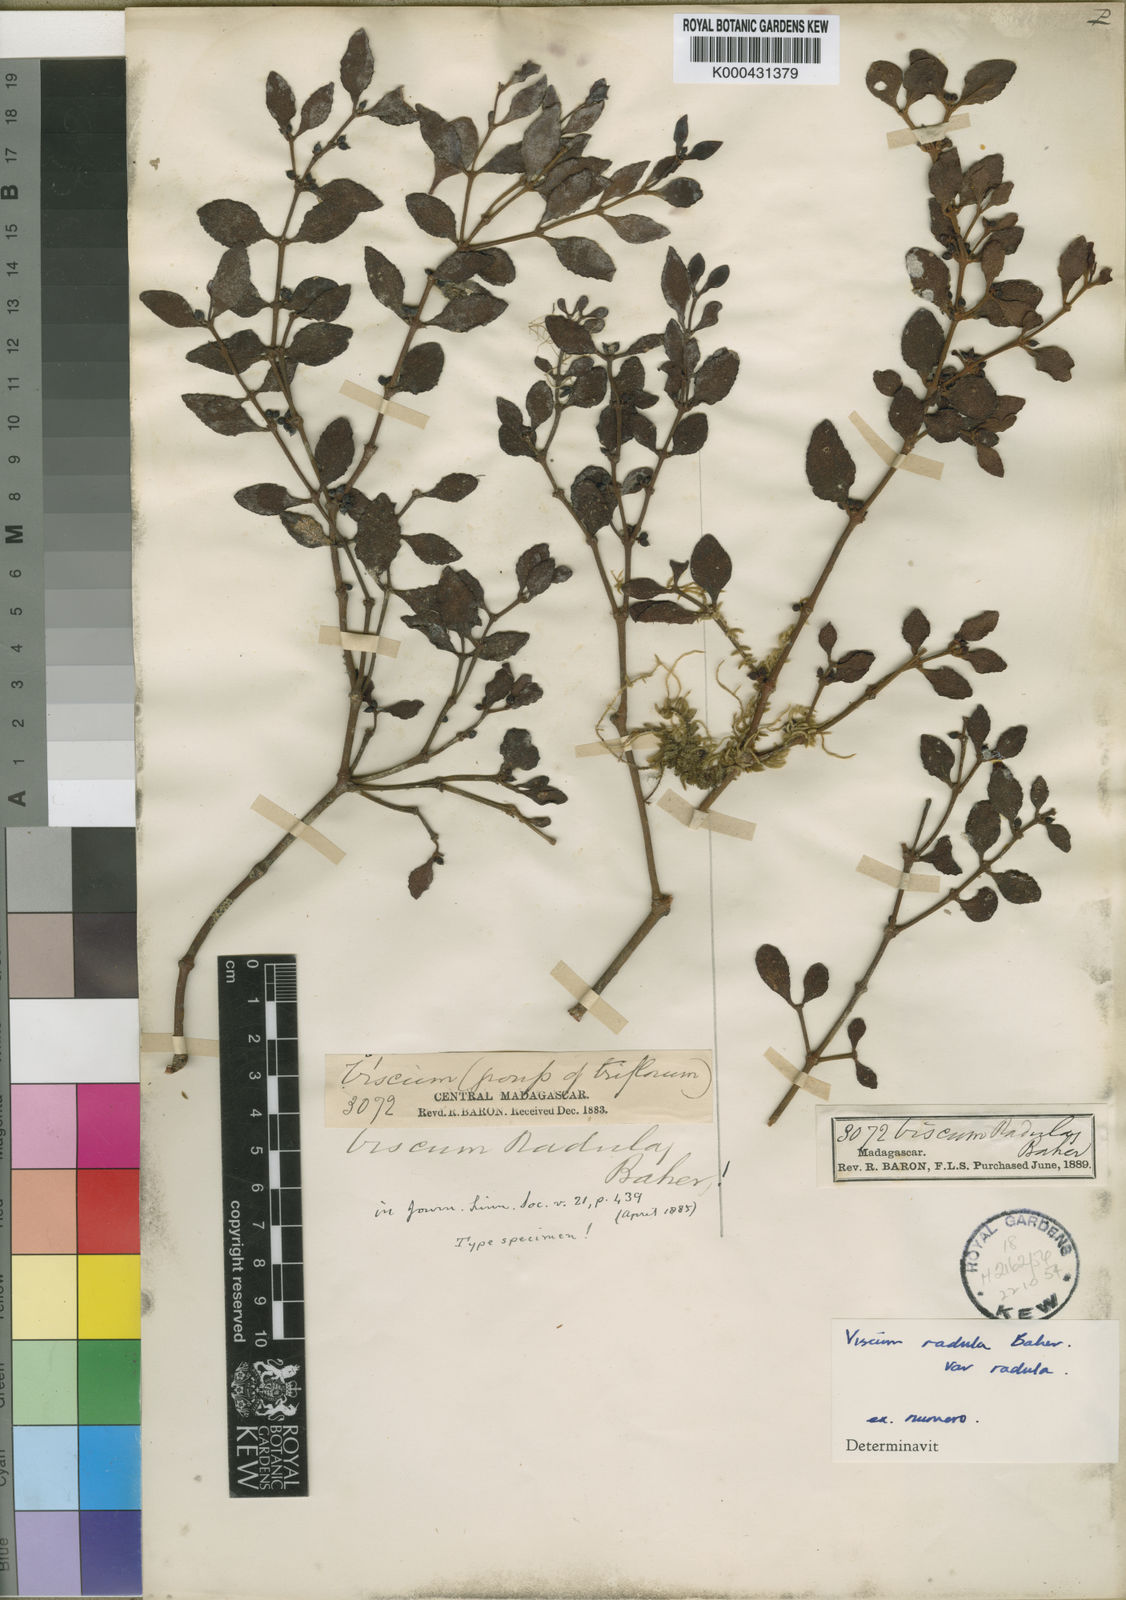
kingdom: Plantae
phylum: Tracheophyta
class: Magnoliopsida
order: Santalales
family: Viscaceae
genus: Viscum
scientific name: Viscum radula
